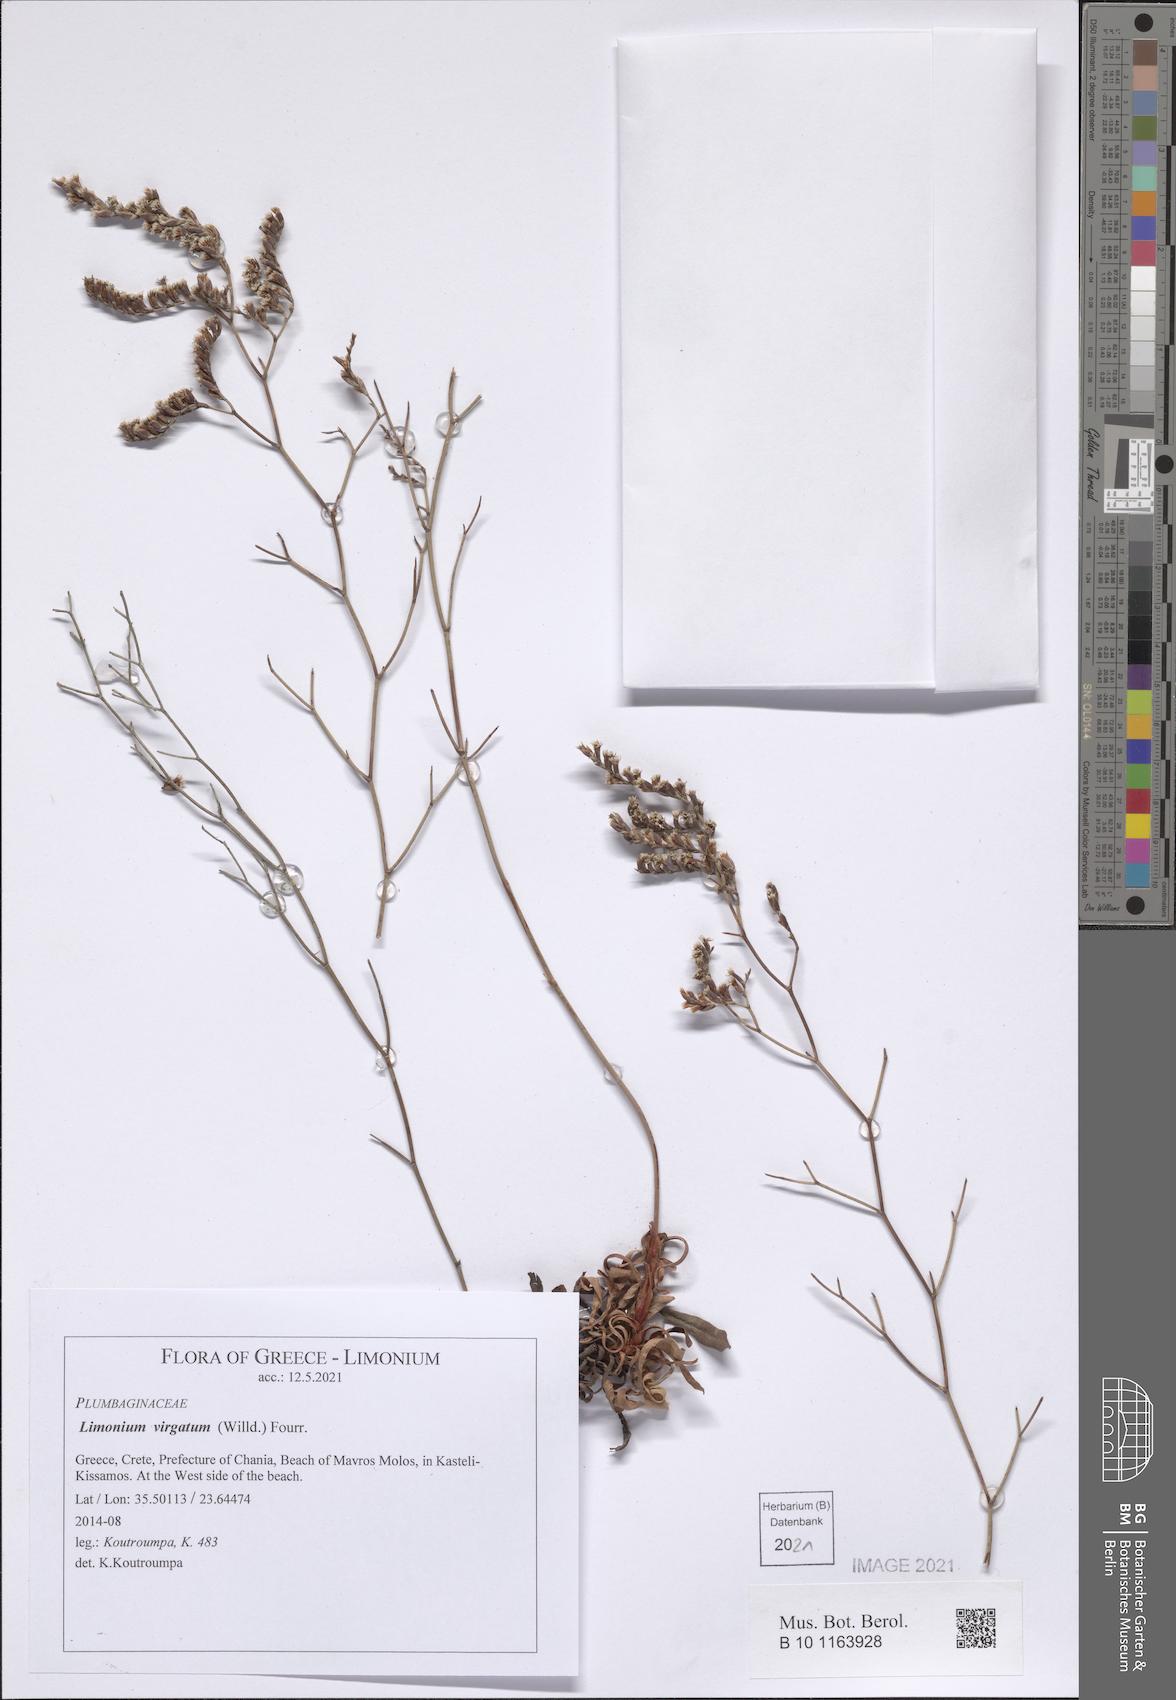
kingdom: Plantae
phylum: Tracheophyta
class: Magnoliopsida
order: Caryophyllales
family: Plumbaginaceae
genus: Limonium
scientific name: Limonium virgatum
